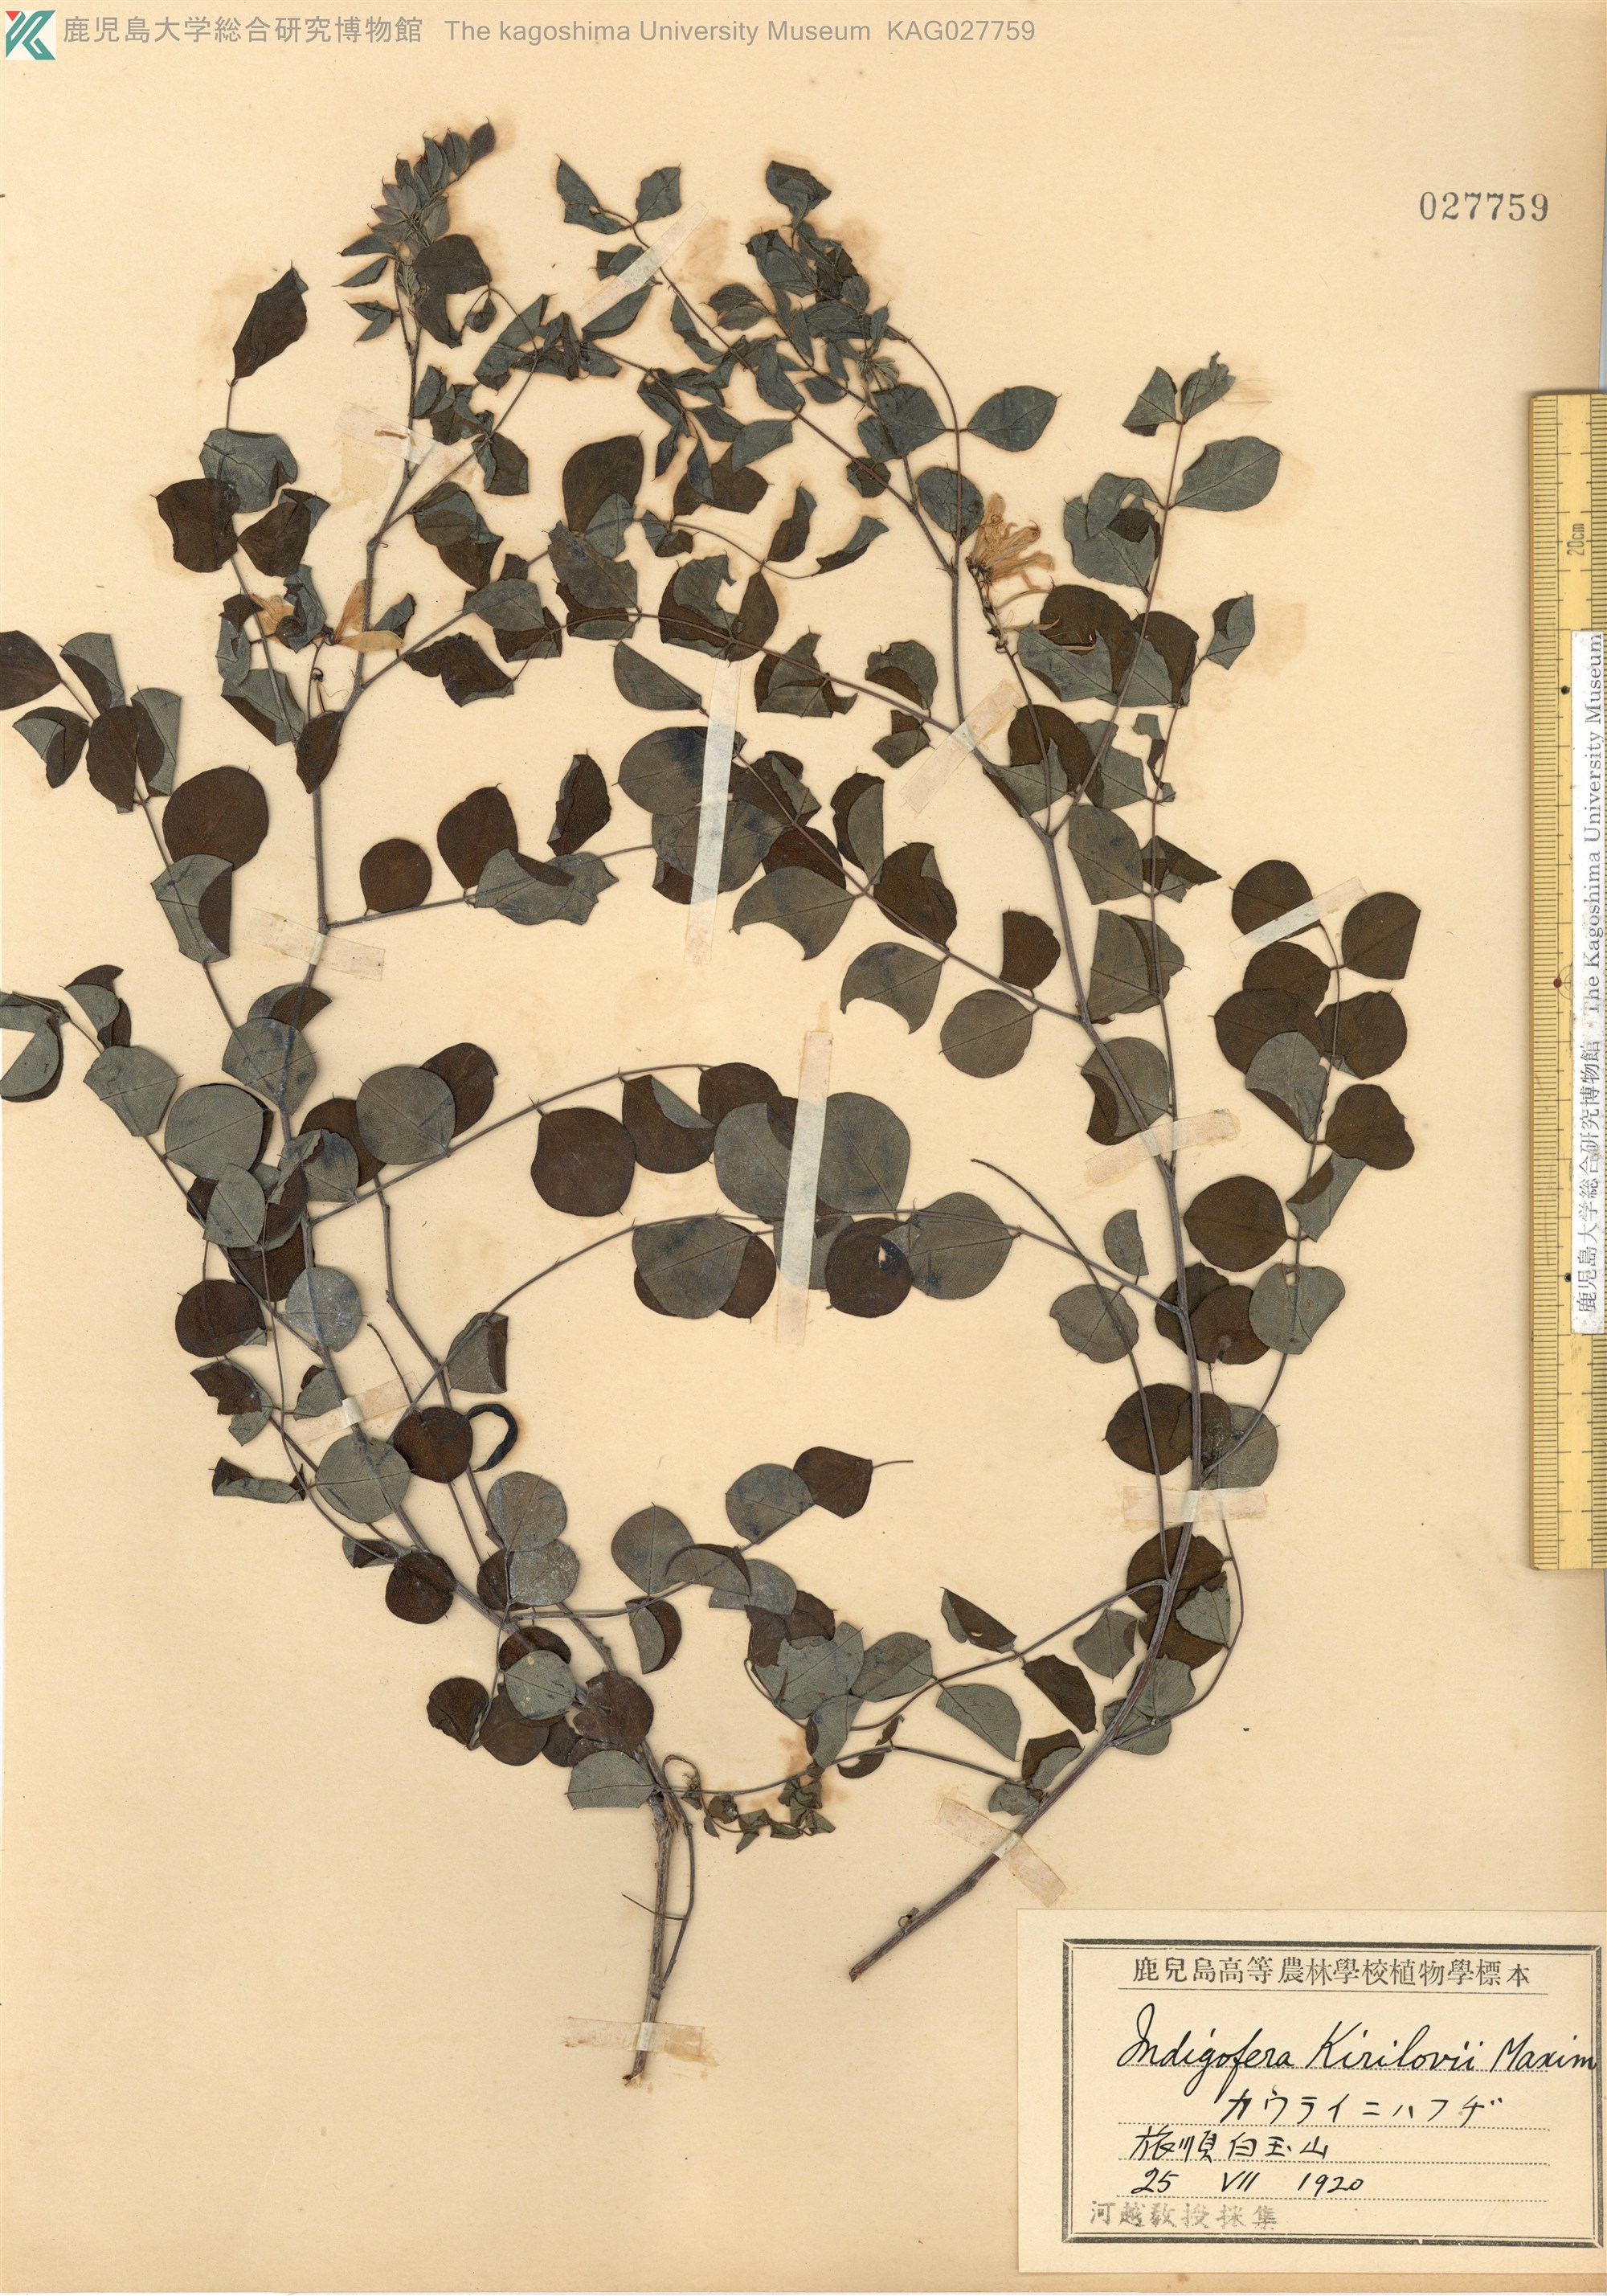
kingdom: Plantae
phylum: Tracheophyta
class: Magnoliopsida
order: Fabales
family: Fabaceae
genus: Indigofera
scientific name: Indigofera kirilowii
